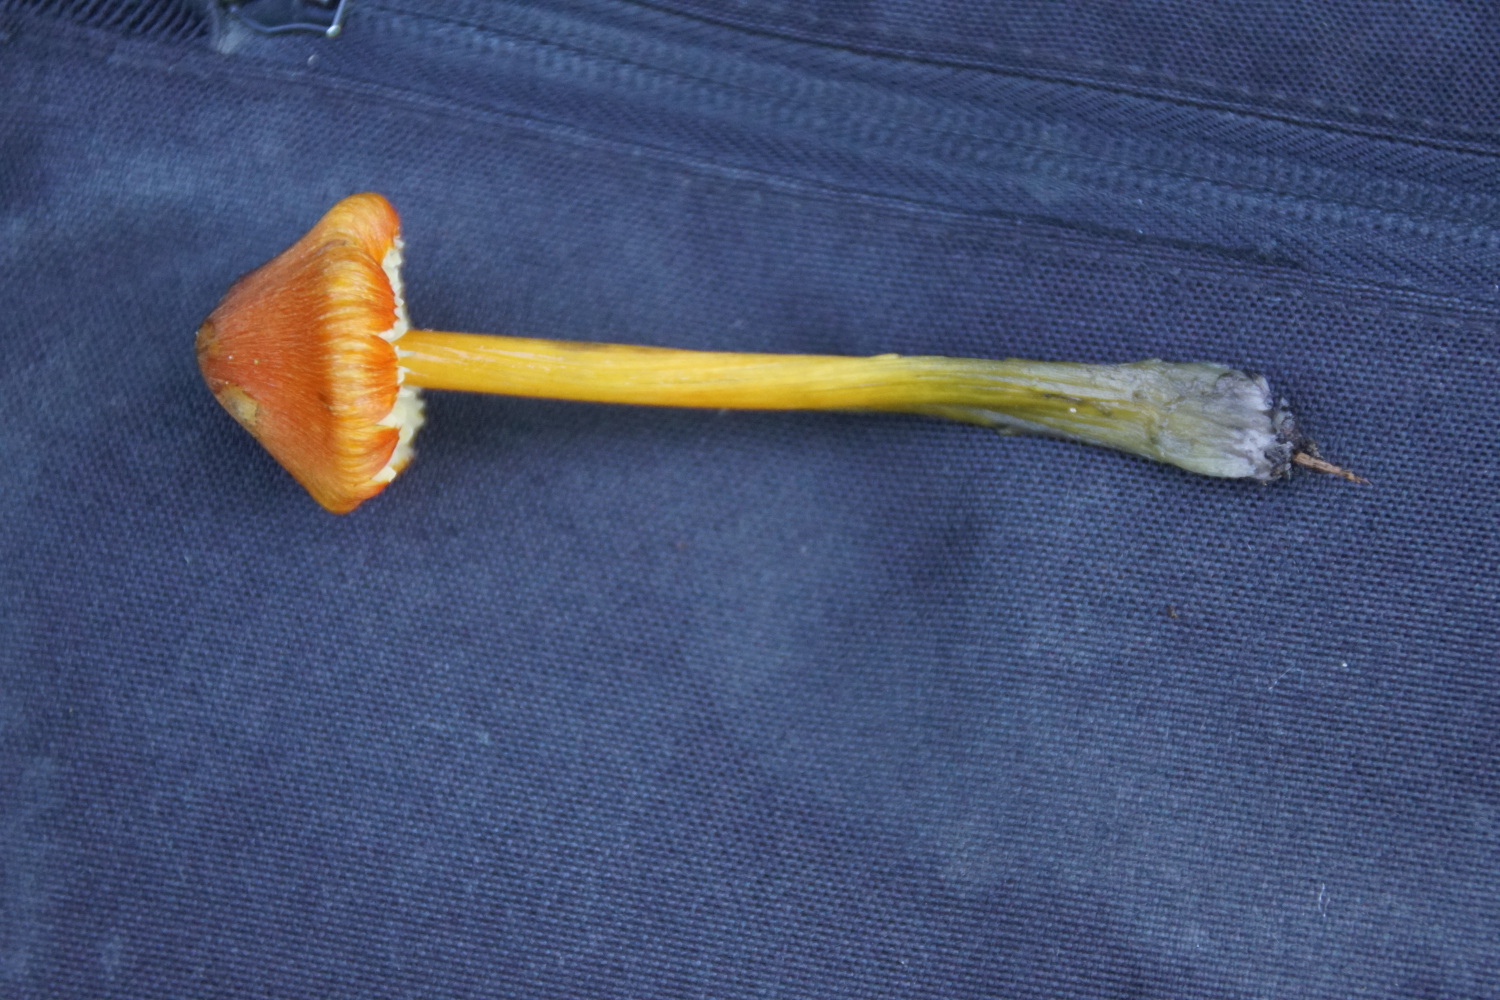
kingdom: Fungi
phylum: Basidiomycota
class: Agaricomycetes
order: Agaricales
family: Hygrophoraceae
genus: Hygrocybe
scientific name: Hygrocybe conica
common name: kegle-vokshat
